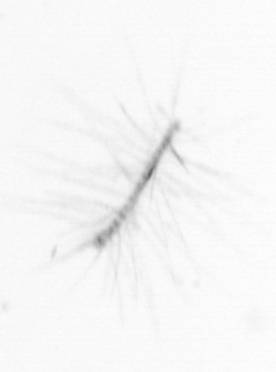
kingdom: Chromista
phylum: Ochrophyta
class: Bacillariophyceae
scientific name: Bacillariophyceae
